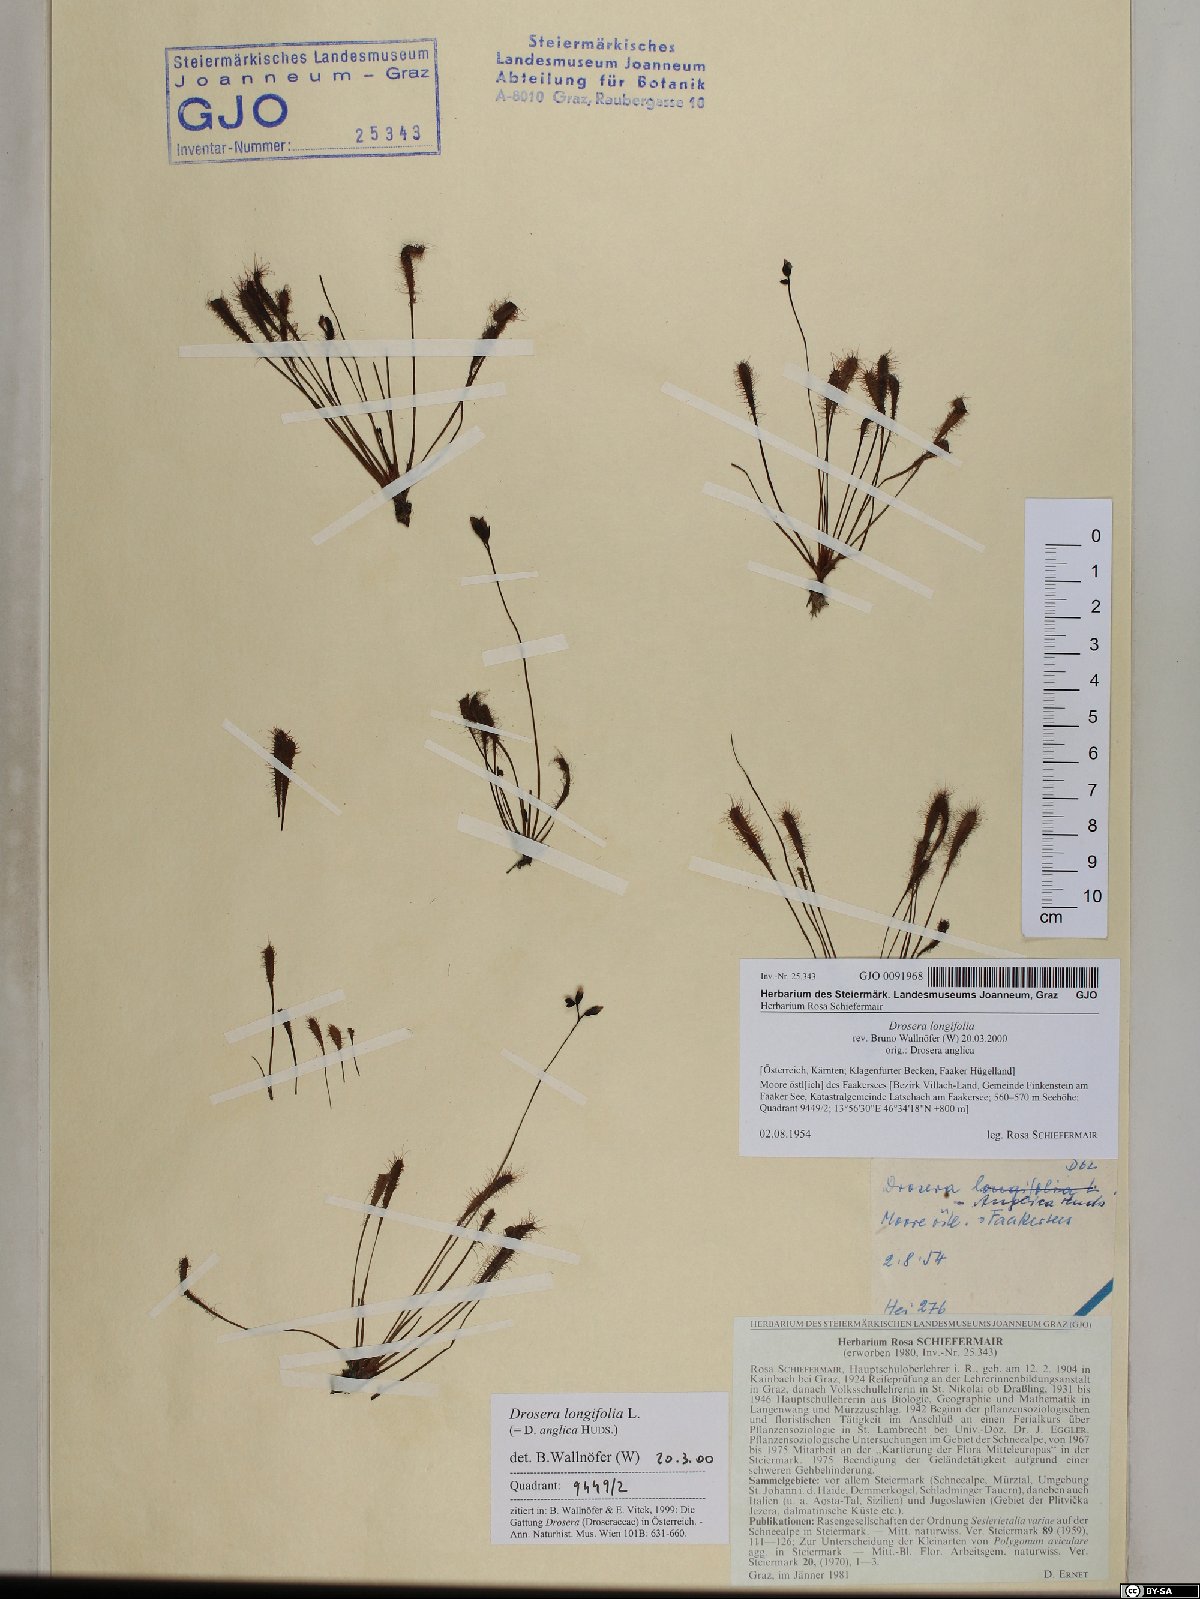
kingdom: Plantae
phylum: Tracheophyta
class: Magnoliopsida
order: Caryophyllales
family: Droseraceae
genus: Drosera
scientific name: Drosera anglica
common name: Great sundew
